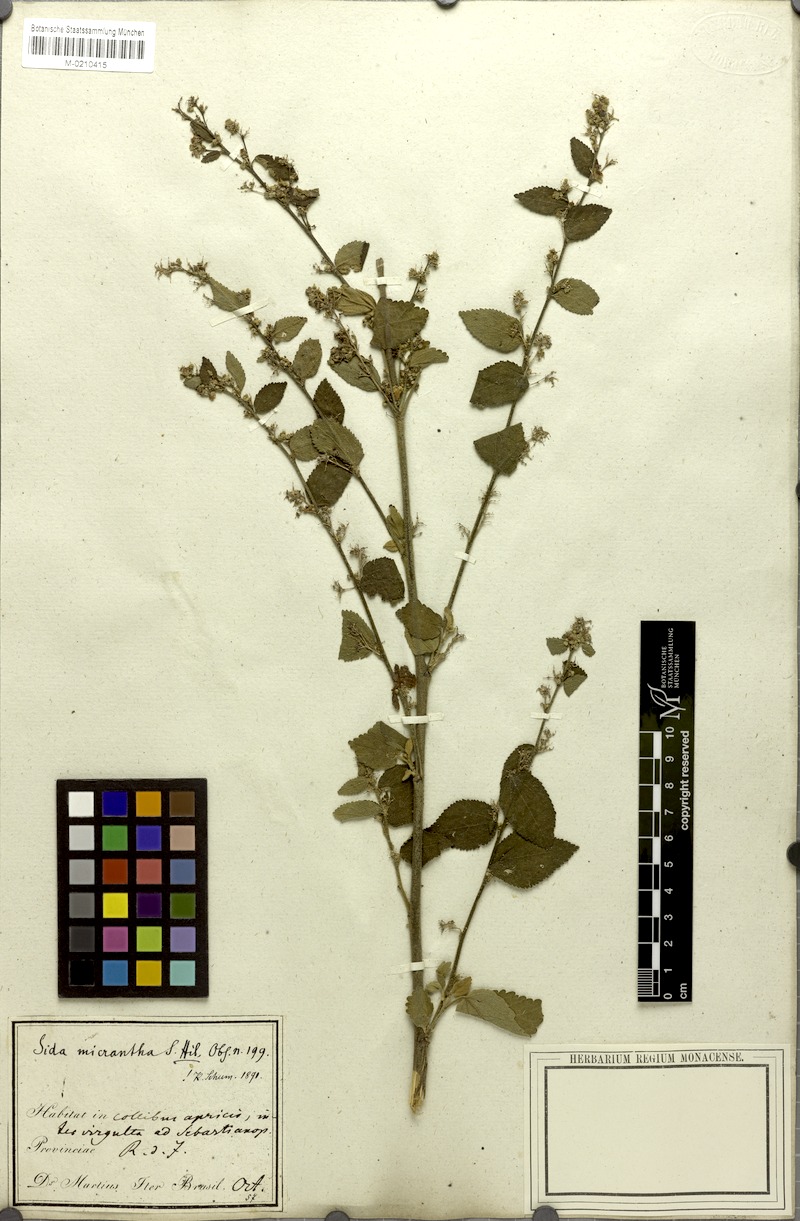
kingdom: Plantae
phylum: Tracheophyta
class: Magnoliopsida
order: Malvales
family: Malvaceae
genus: Sidastrum
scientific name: Sidastrum micranthum
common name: Dainty sandmallow
